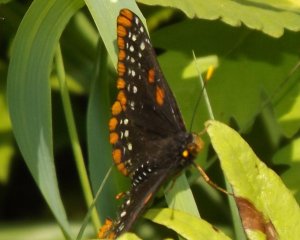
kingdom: Animalia
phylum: Arthropoda
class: Insecta
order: Lepidoptera
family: Nymphalidae
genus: Euphydryas
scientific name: Euphydryas phaeton
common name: Baltimore Checkerspot
